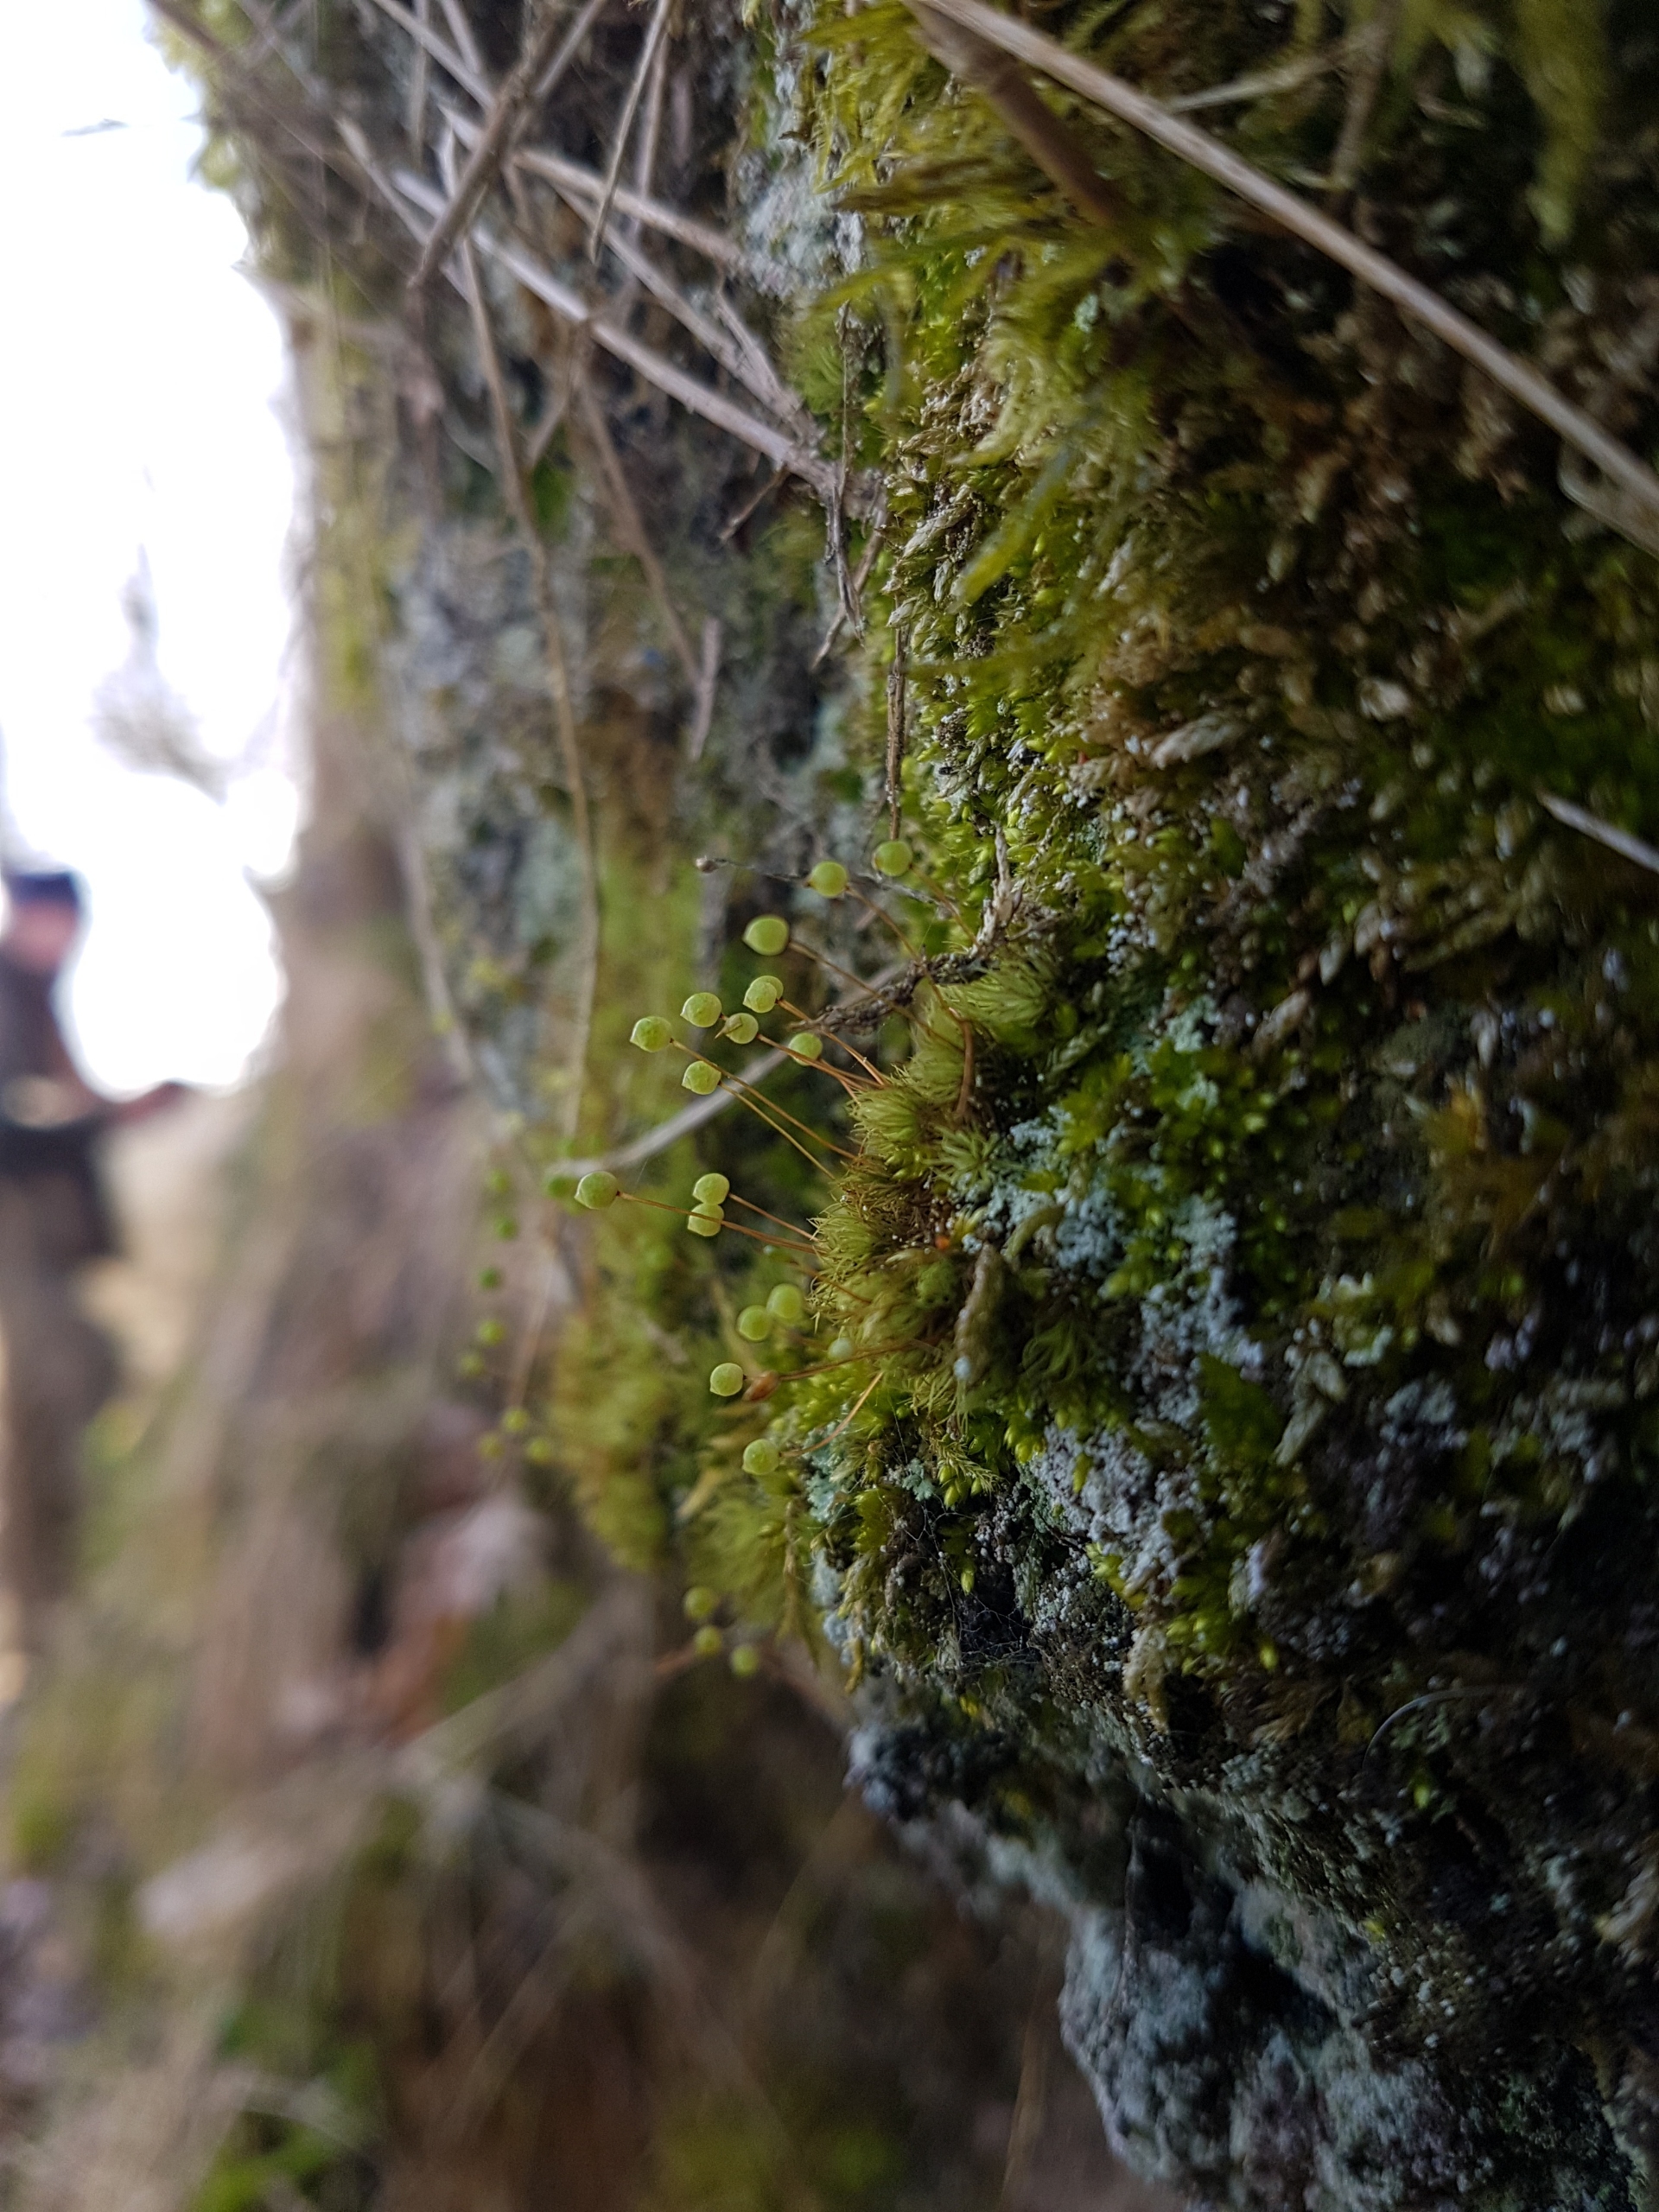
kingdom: Plantae
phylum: Bryophyta
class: Bryopsida
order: Bartramiales
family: Bartramiaceae
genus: Bartramia
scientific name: Bartramia pomiformis
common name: Gulgrøn kuglekapsel
